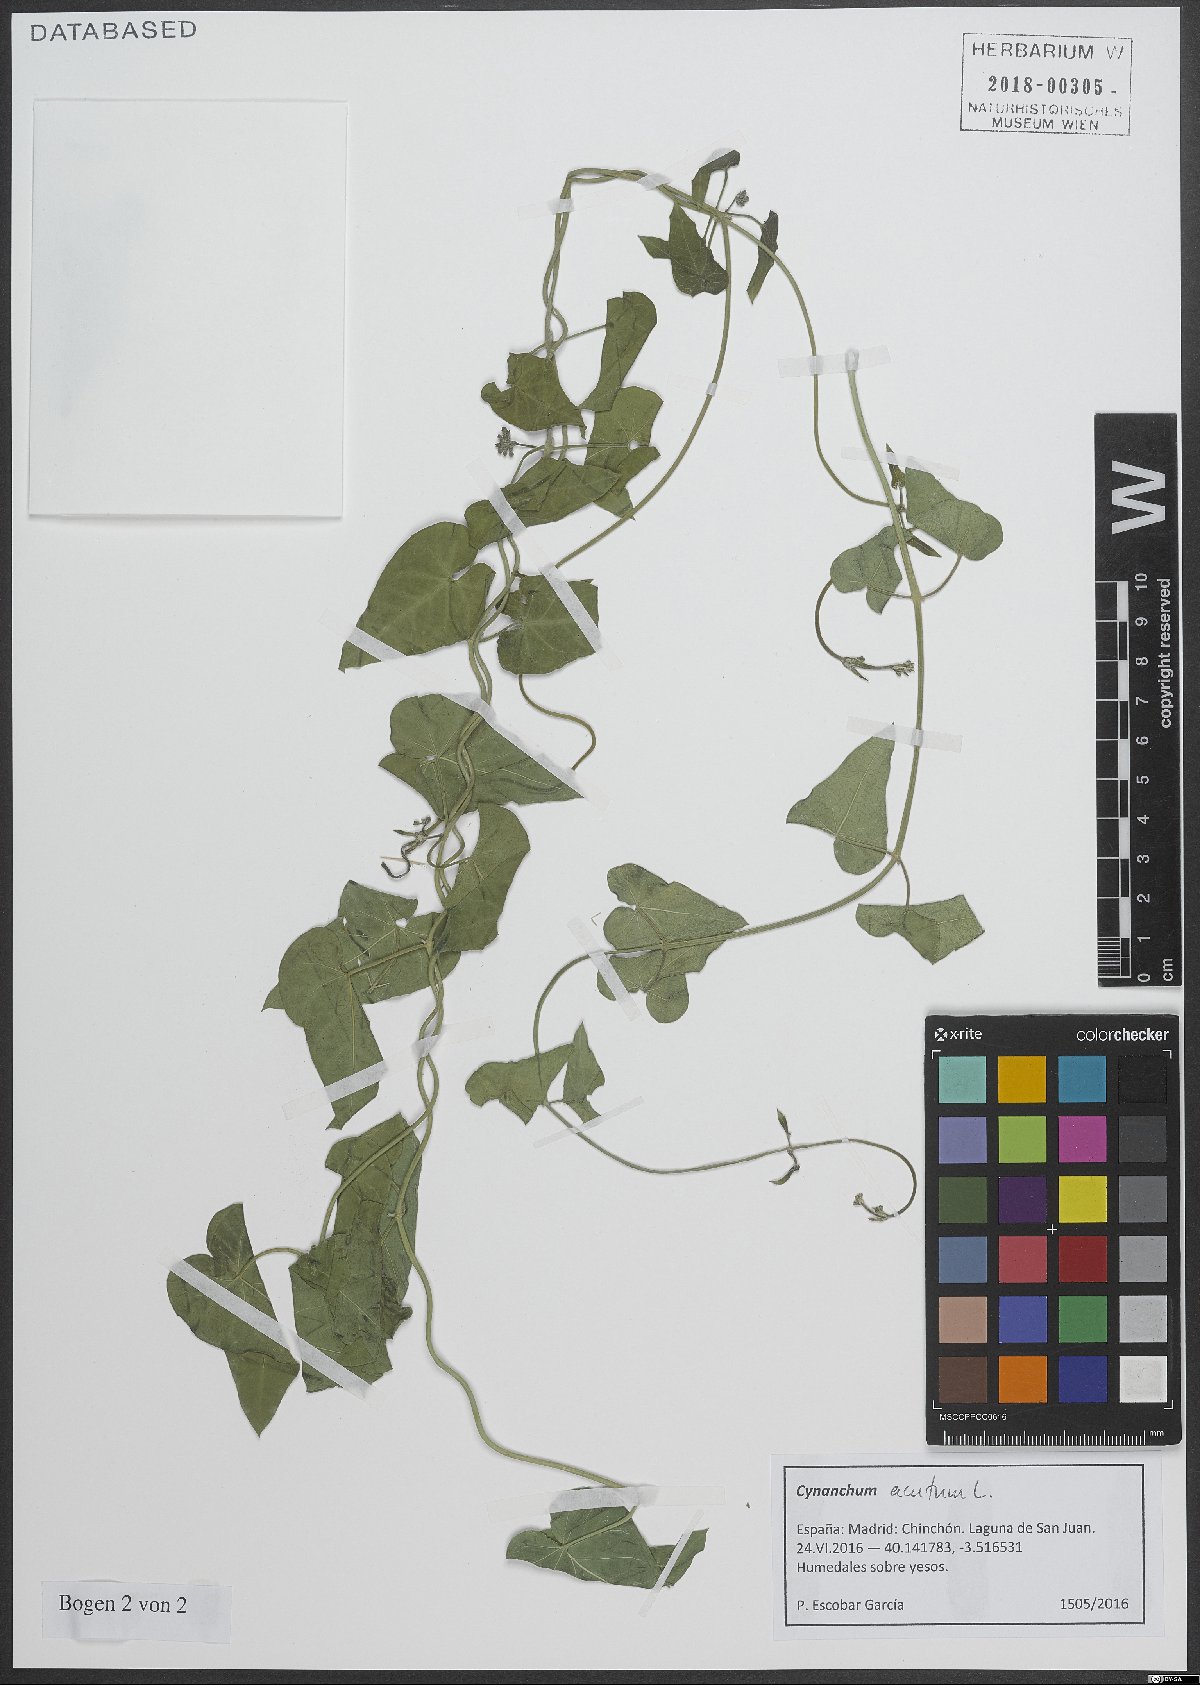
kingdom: Plantae
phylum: Tracheophyta
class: Magnoliopsida
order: Gentianales
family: Apocynaceae
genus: Cynanchum
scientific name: Cynanchum acutum
